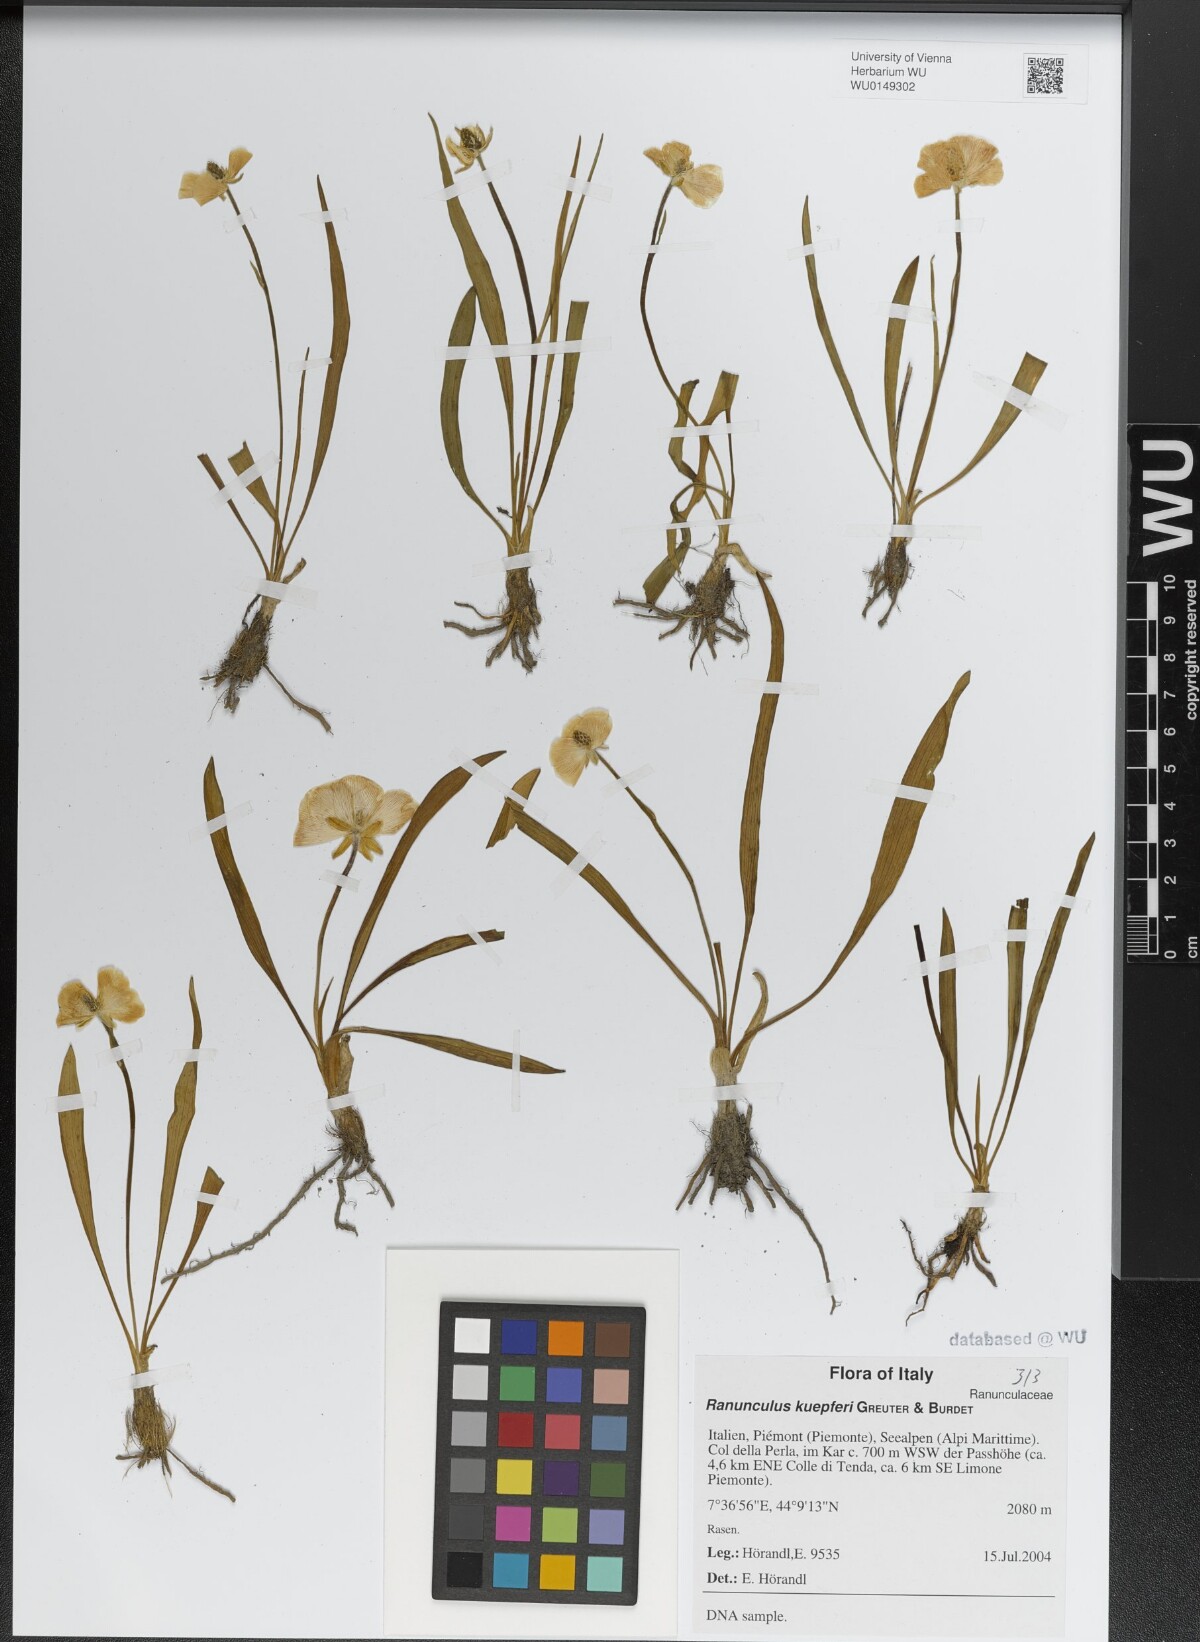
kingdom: Plantae
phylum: Tracheophyta
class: Magnoliopsida
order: Ranunculales
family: Ranunculaceae
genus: Ranunculus
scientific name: Ranunculus kuepferi
